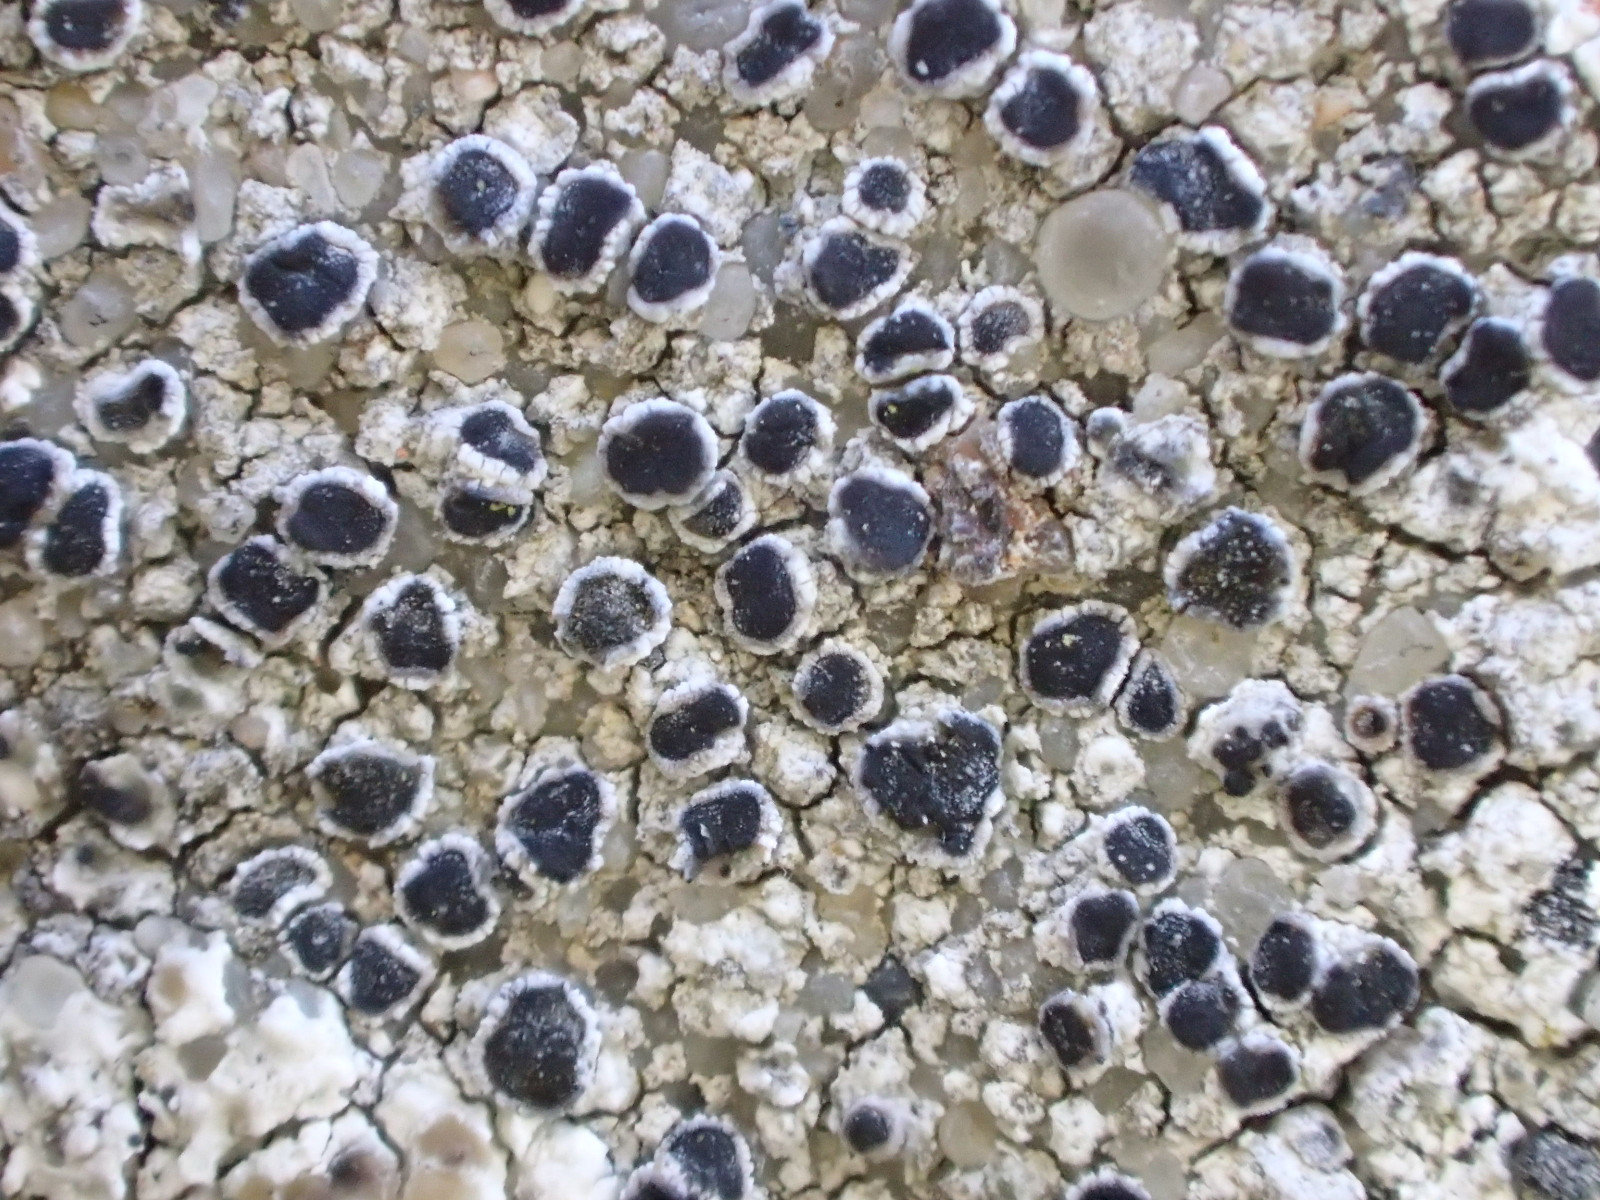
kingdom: Fungi
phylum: Ascomycota
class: Lecanoromycetes
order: Caliciales
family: Physciaceae
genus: Rinodina
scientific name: Rinodina oleae
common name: kyst-knaplav
